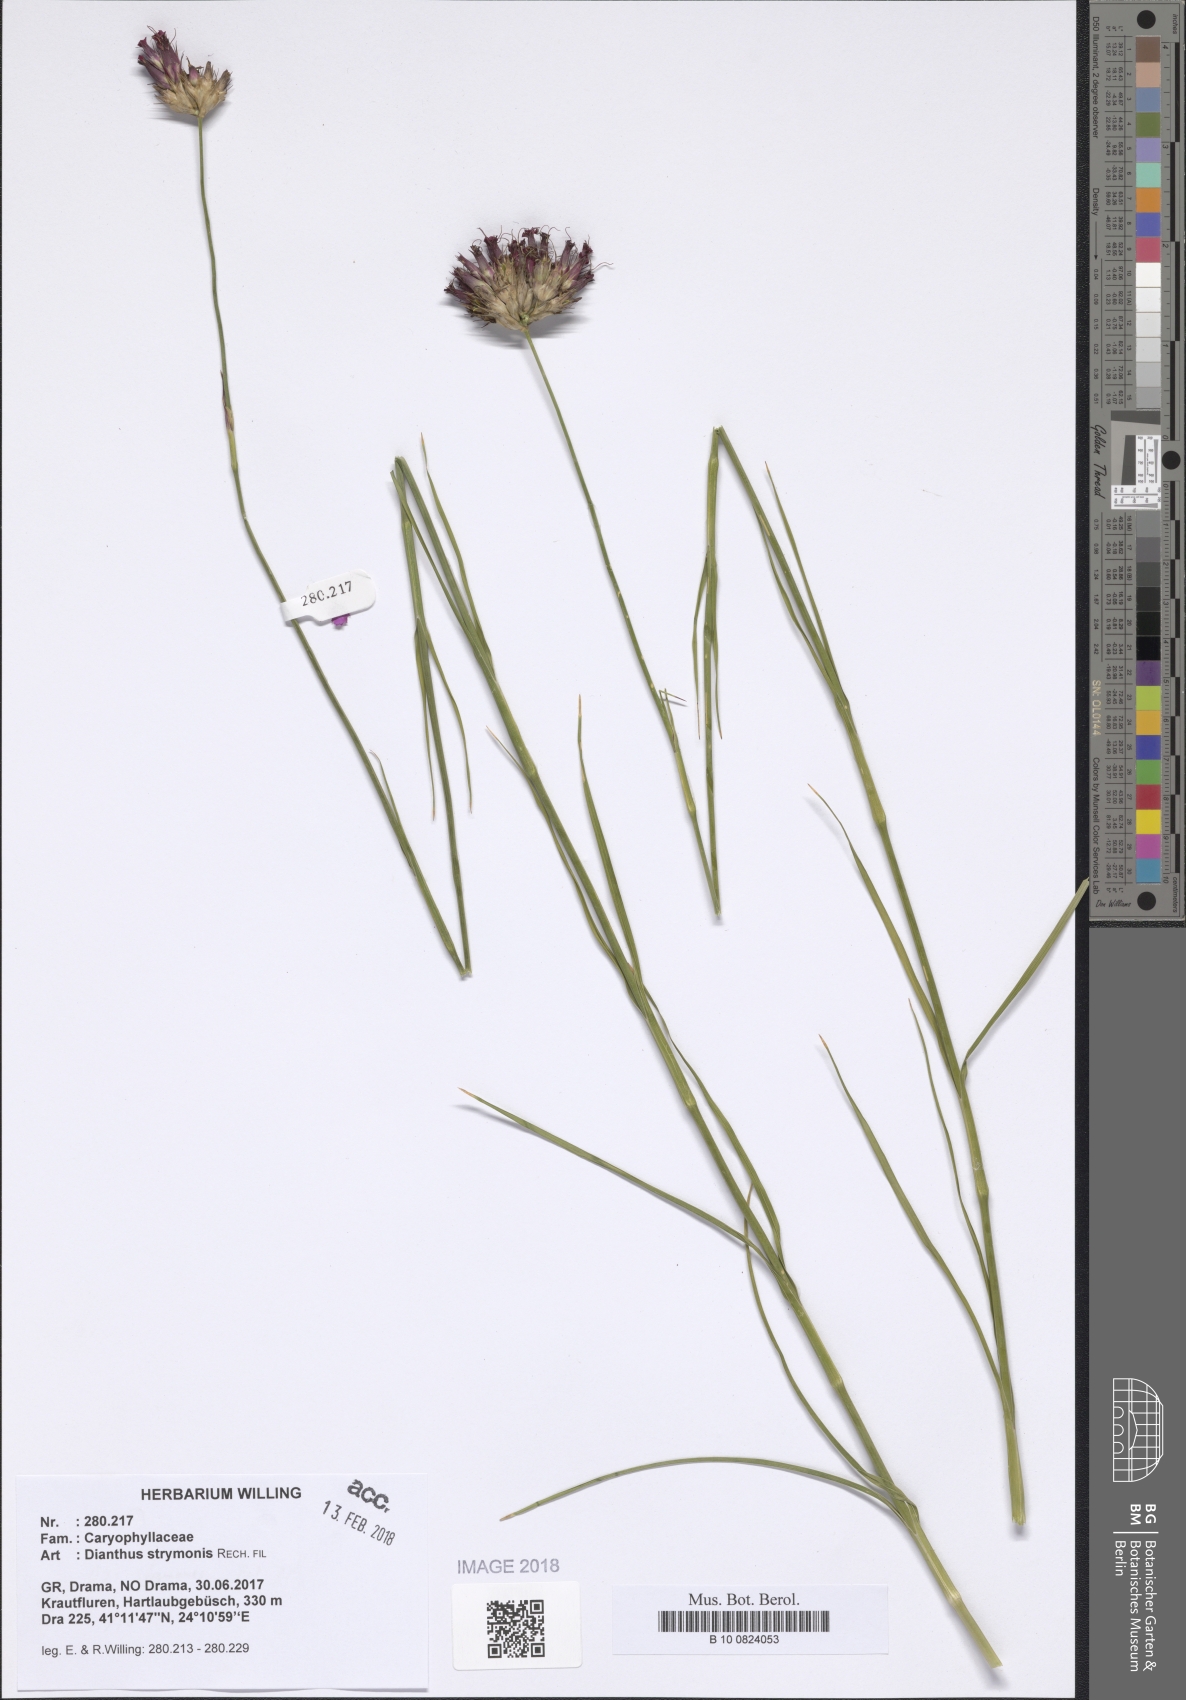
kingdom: Plantae
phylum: Tracheophyta
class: Magnoliopsida
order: Caryophyllales
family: Caryophyllaceae
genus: Dianthus
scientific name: Dianthus strymonis
